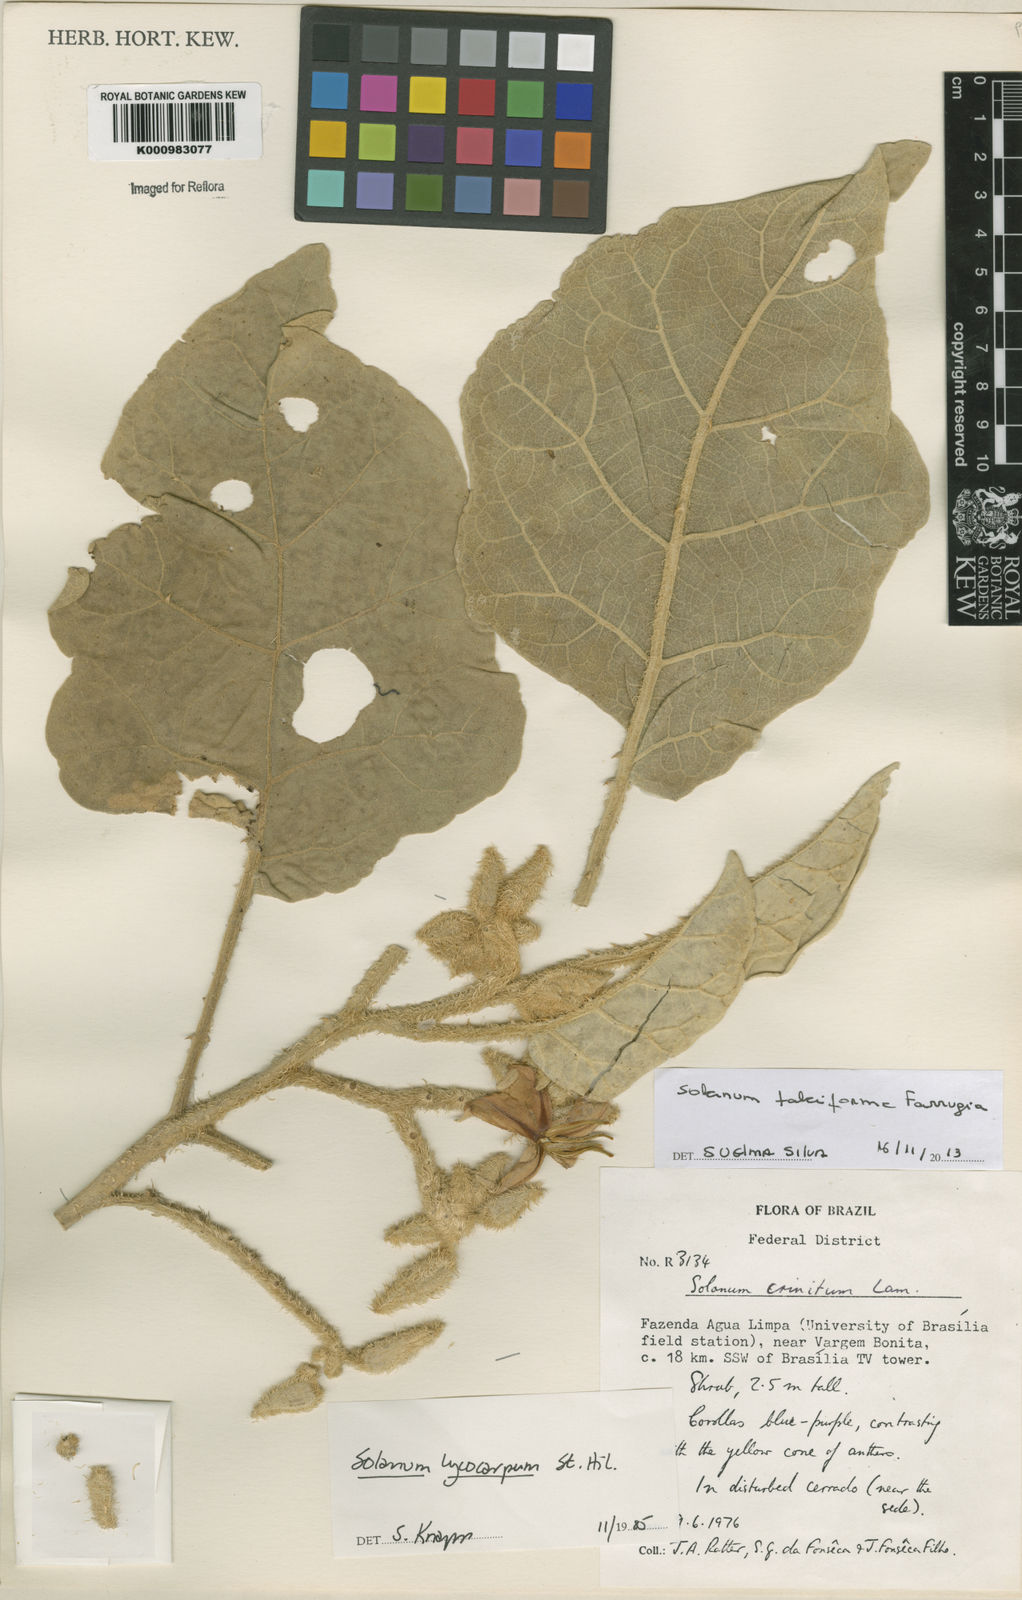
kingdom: Plantae
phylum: Tracheophyta
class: Magnoliopsida
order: Solanales
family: Solanaceae
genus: Solanum
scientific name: Solanum
